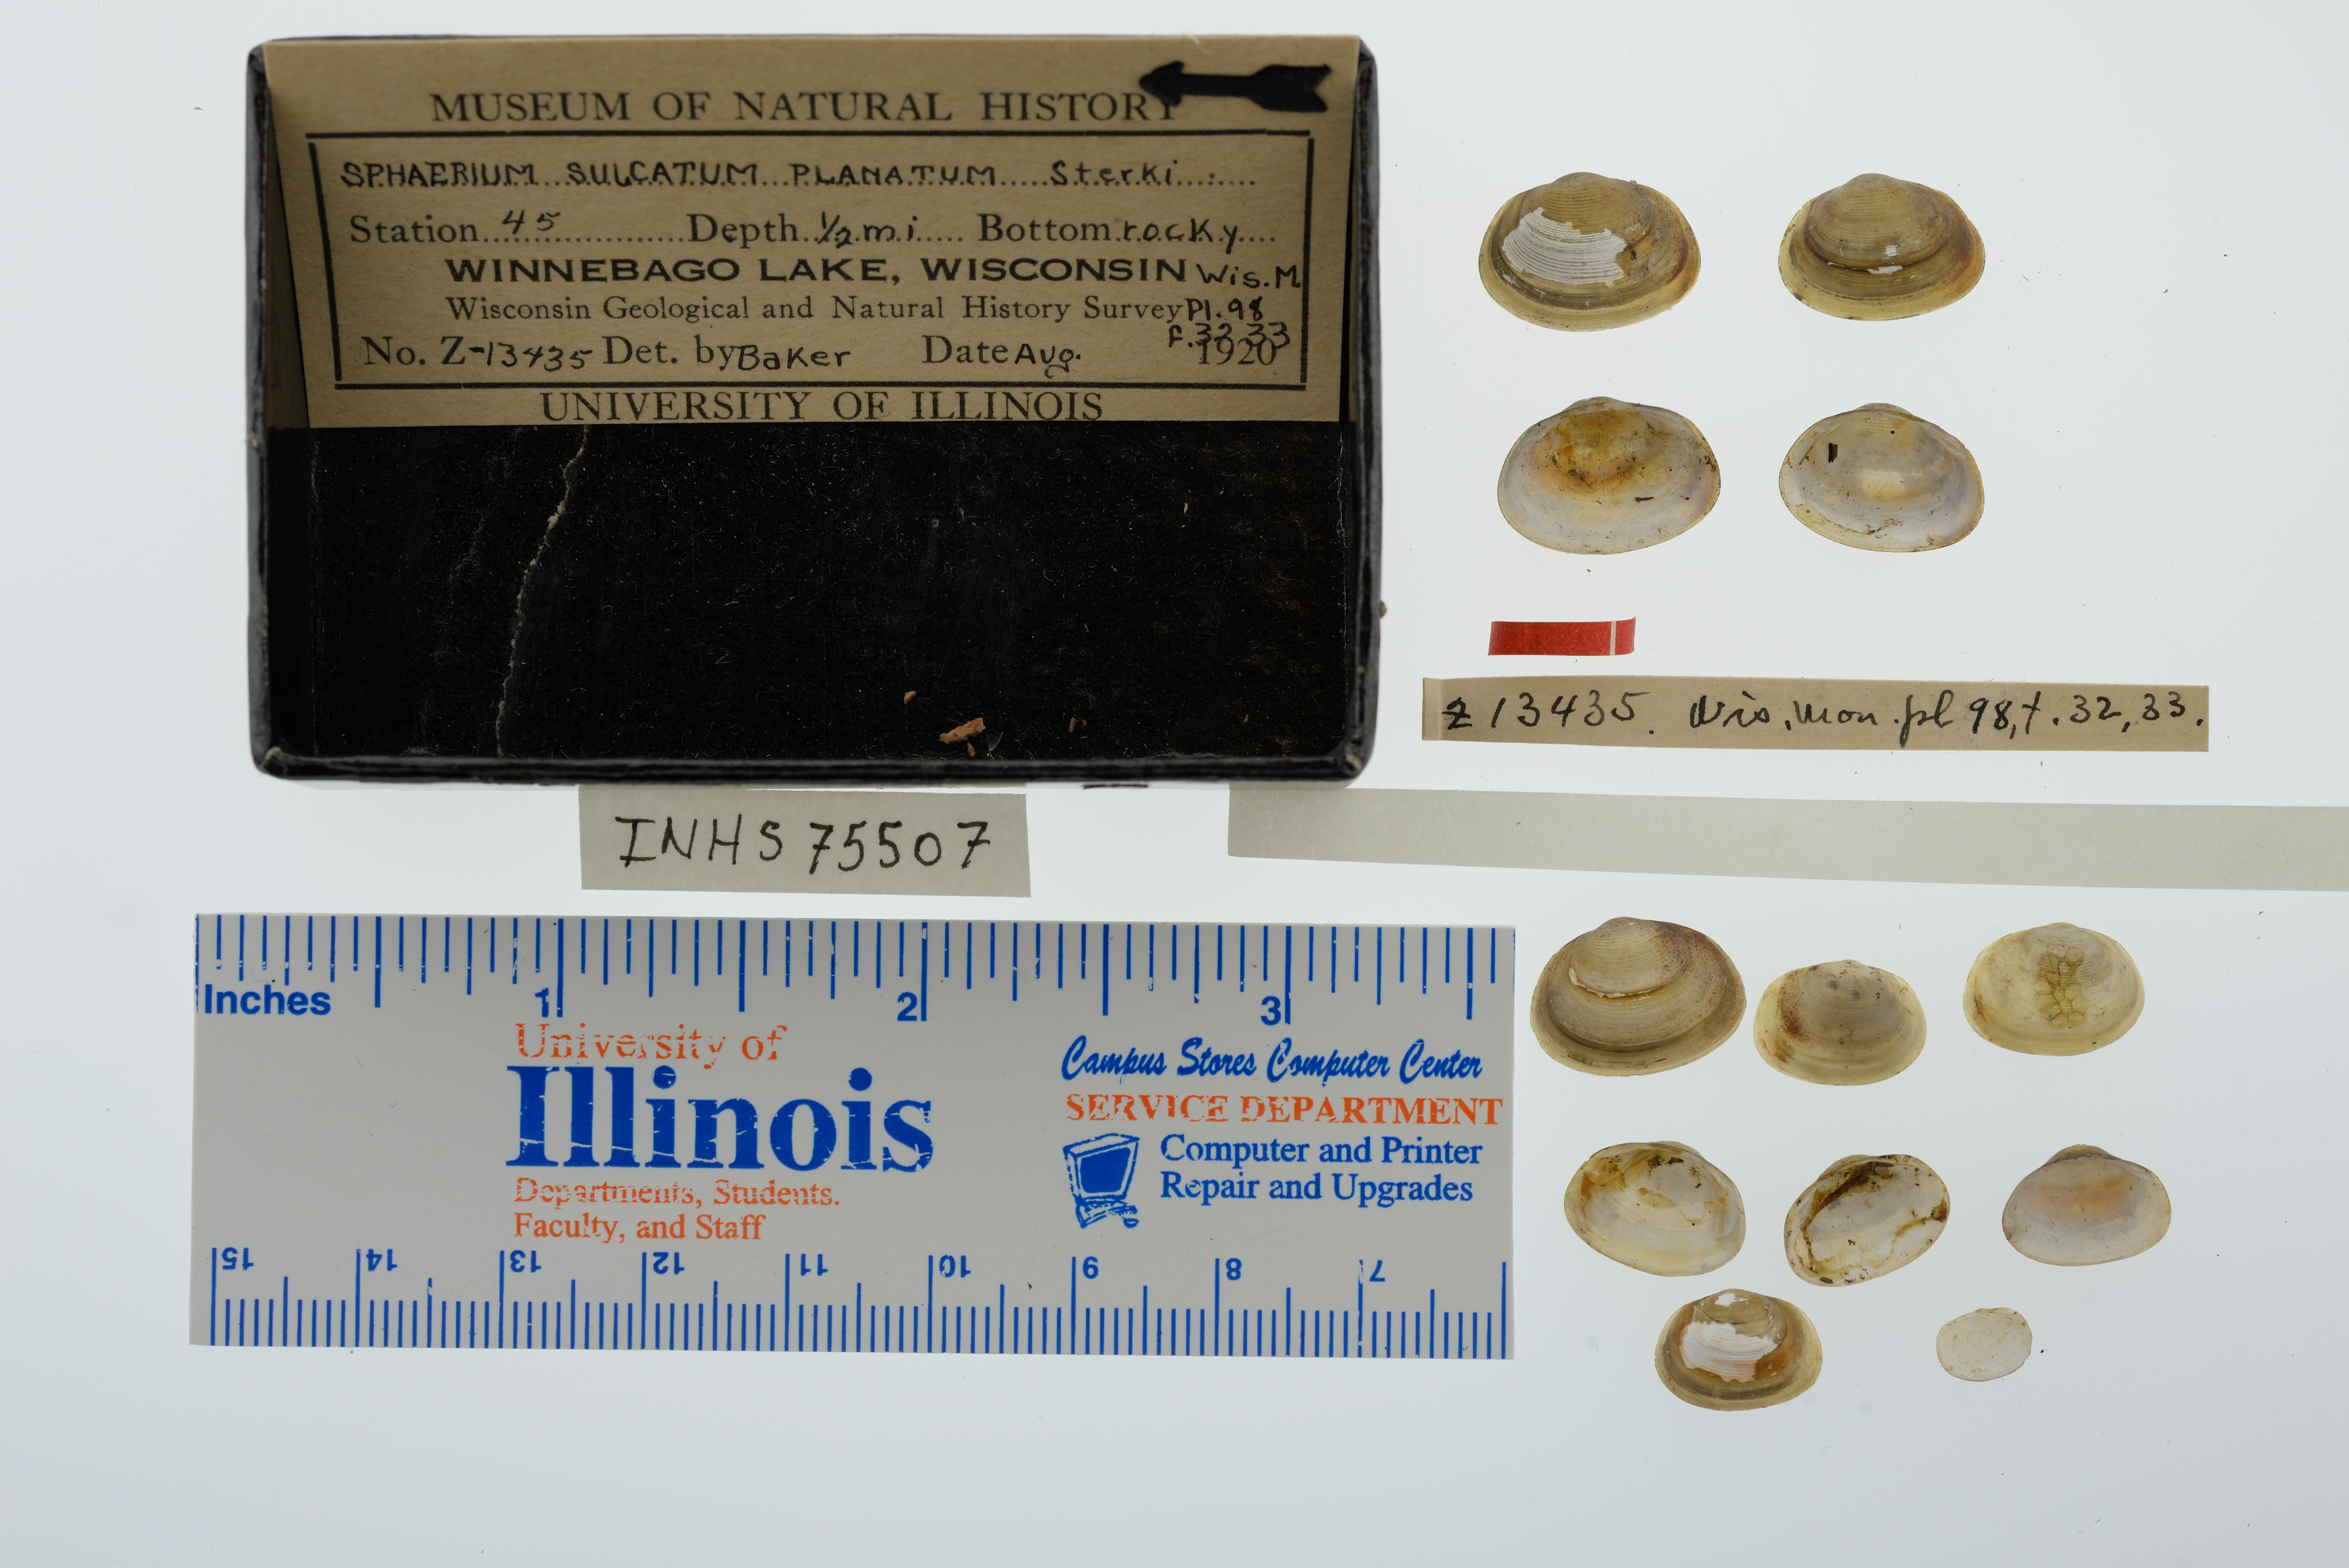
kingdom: Animalia
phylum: Mollusca
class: Bivalvia
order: Sphaeriida
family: Sphaeriidae
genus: Sphaerium
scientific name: Sphaerium simile
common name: Grooved fingernailclam
